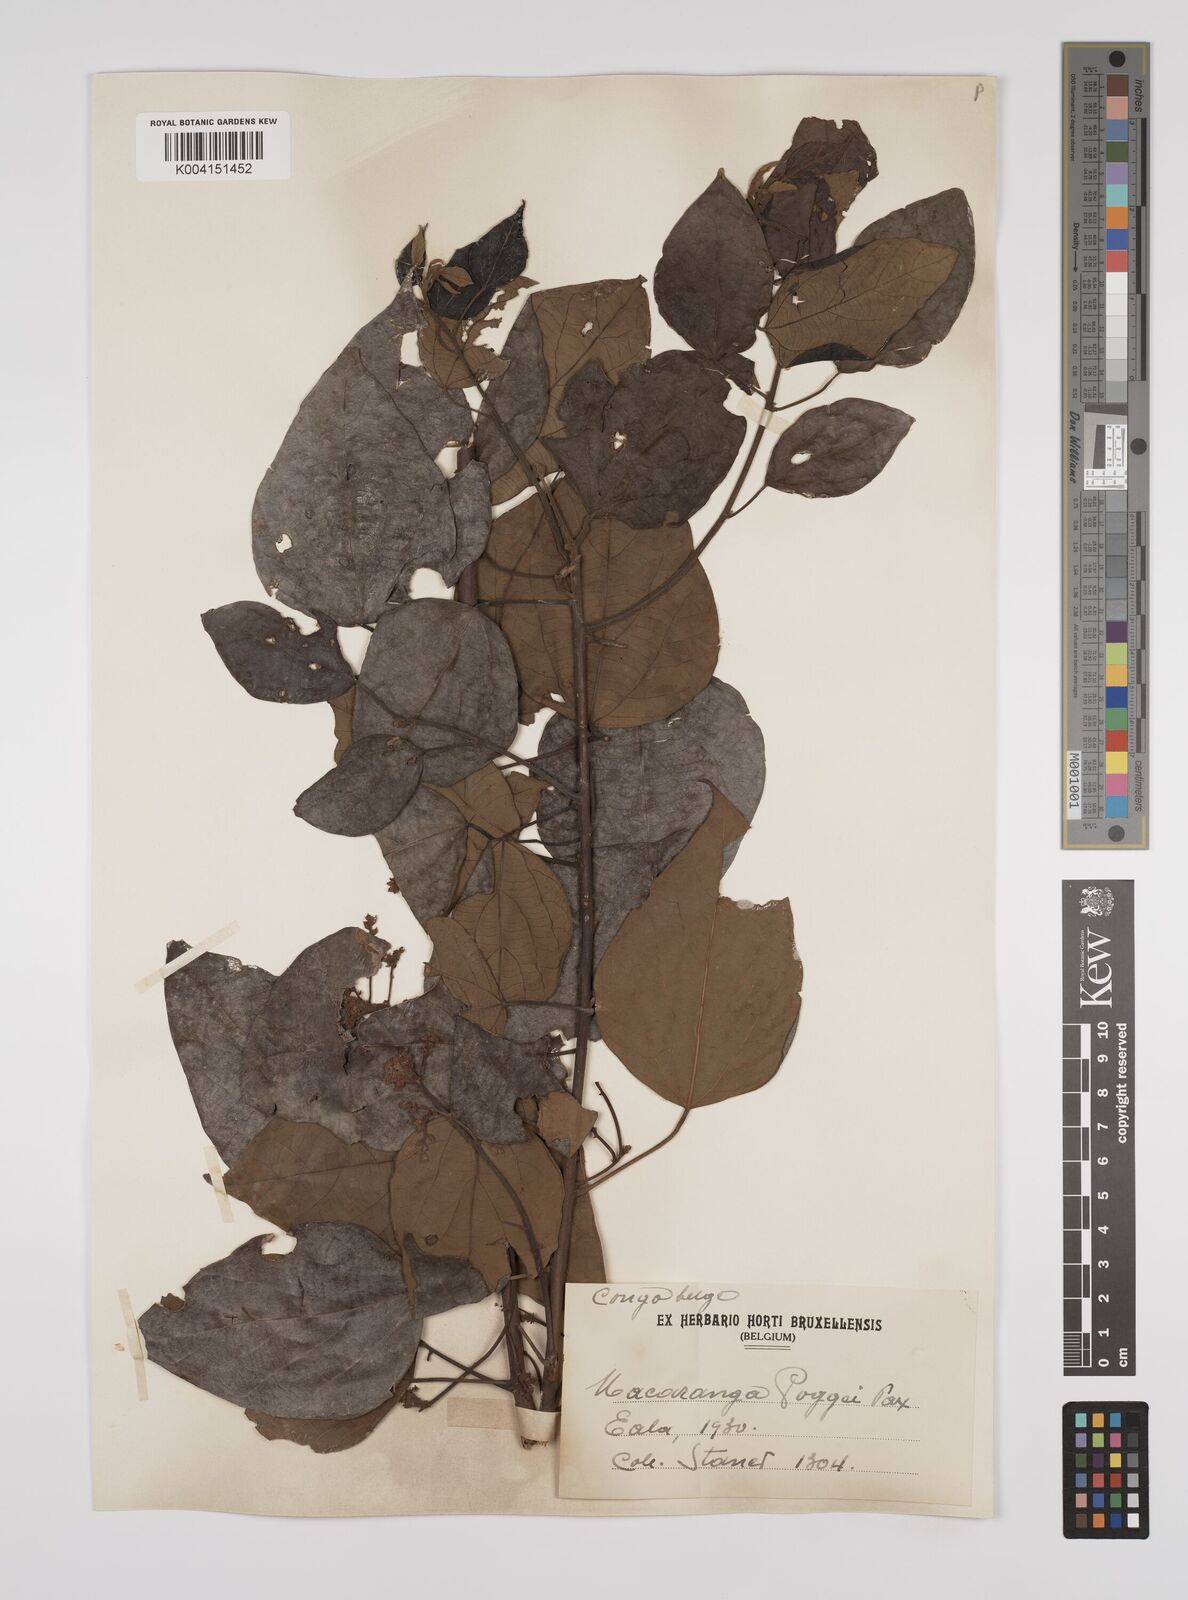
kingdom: Plantae
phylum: Tracheophyta
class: Magnoliopsida
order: Malpighiales
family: Euphorbiaceae
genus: Macaranga
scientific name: Macaranga poggei
